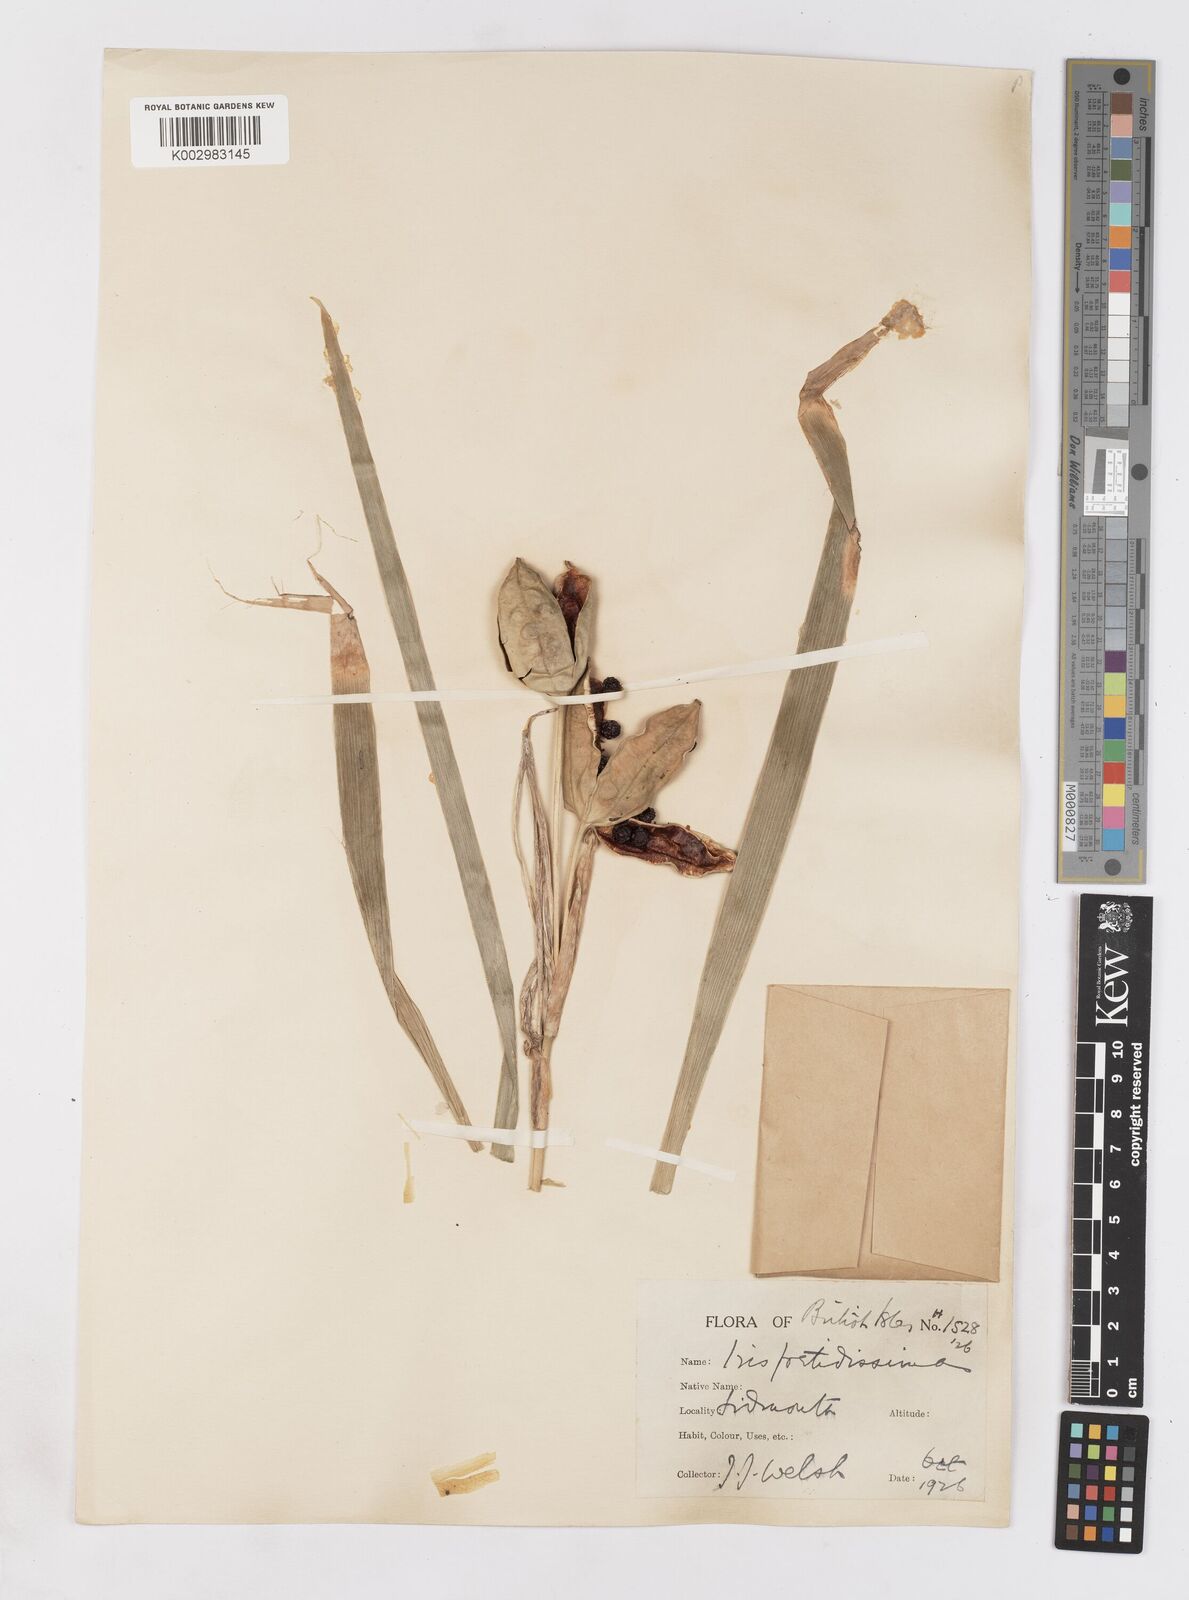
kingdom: Plantae
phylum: Tracheophyta
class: Liliopsida
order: Asparagales
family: Iridaceae
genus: Iris
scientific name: Iris foetidissima
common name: Stinking iris
